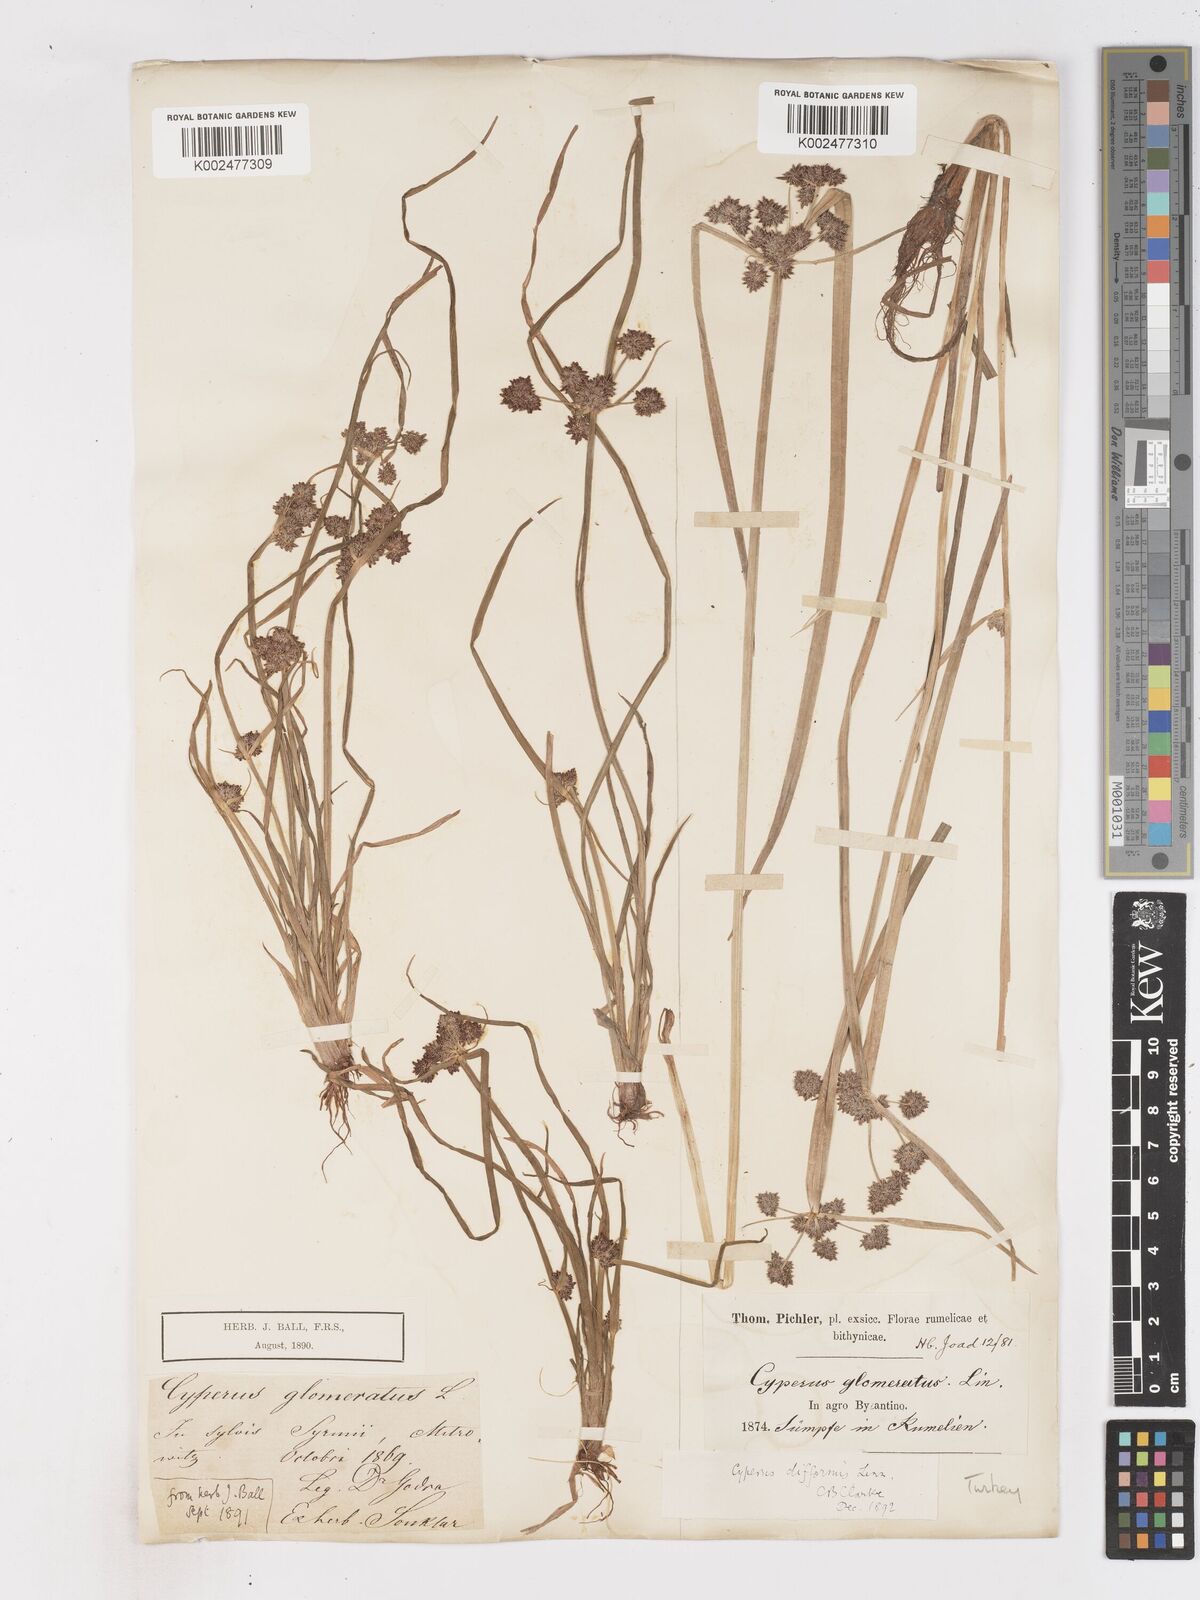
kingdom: Plantae
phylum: Tracheophyta
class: Liliopsida
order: Poales
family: Cyperaceae
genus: Cyperus
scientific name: Cyperus difformis
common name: Variable flatsedge
